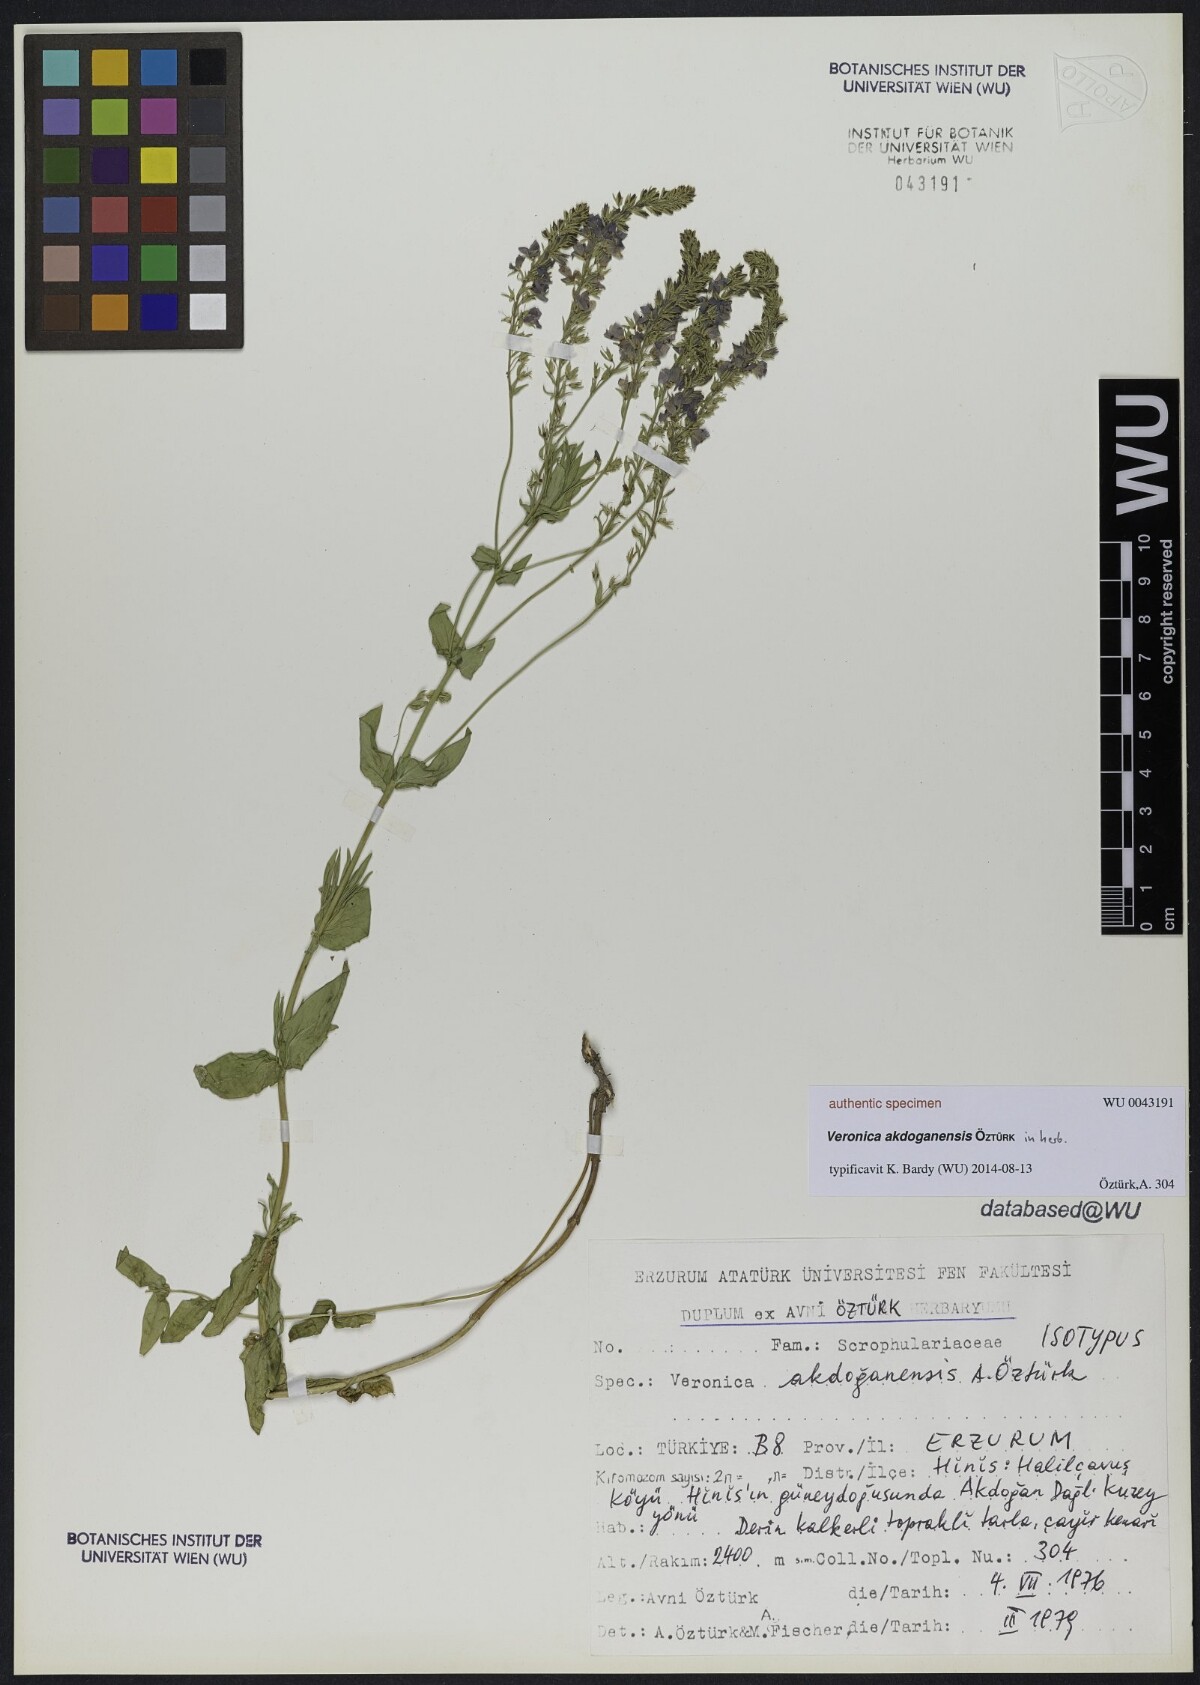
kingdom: Plantae
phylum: Tracheophyta
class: Magnoliopsida
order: Lamiales
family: Scrophulariaceae
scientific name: Scrophulariaceae
